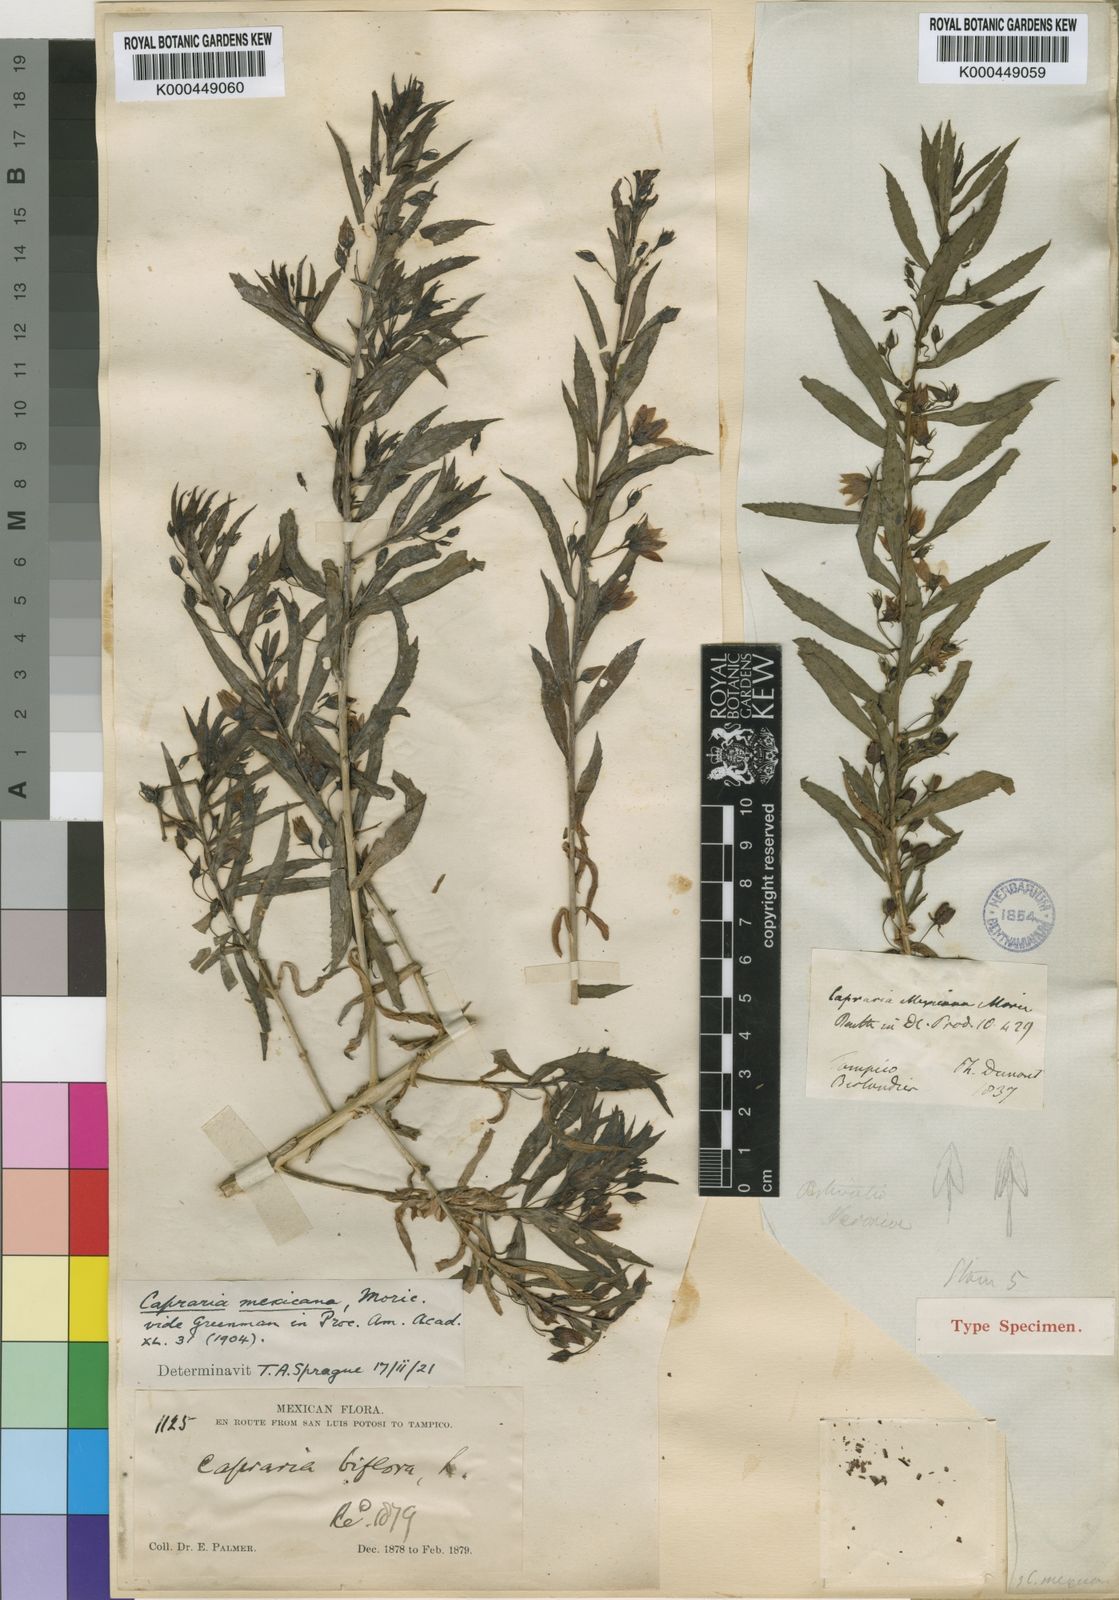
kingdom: Plantae
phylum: Tracheophyta
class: Magnoliopsida
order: Lamiales
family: Scrophulariaceae
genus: Capraria
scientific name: Capraria mexicana
